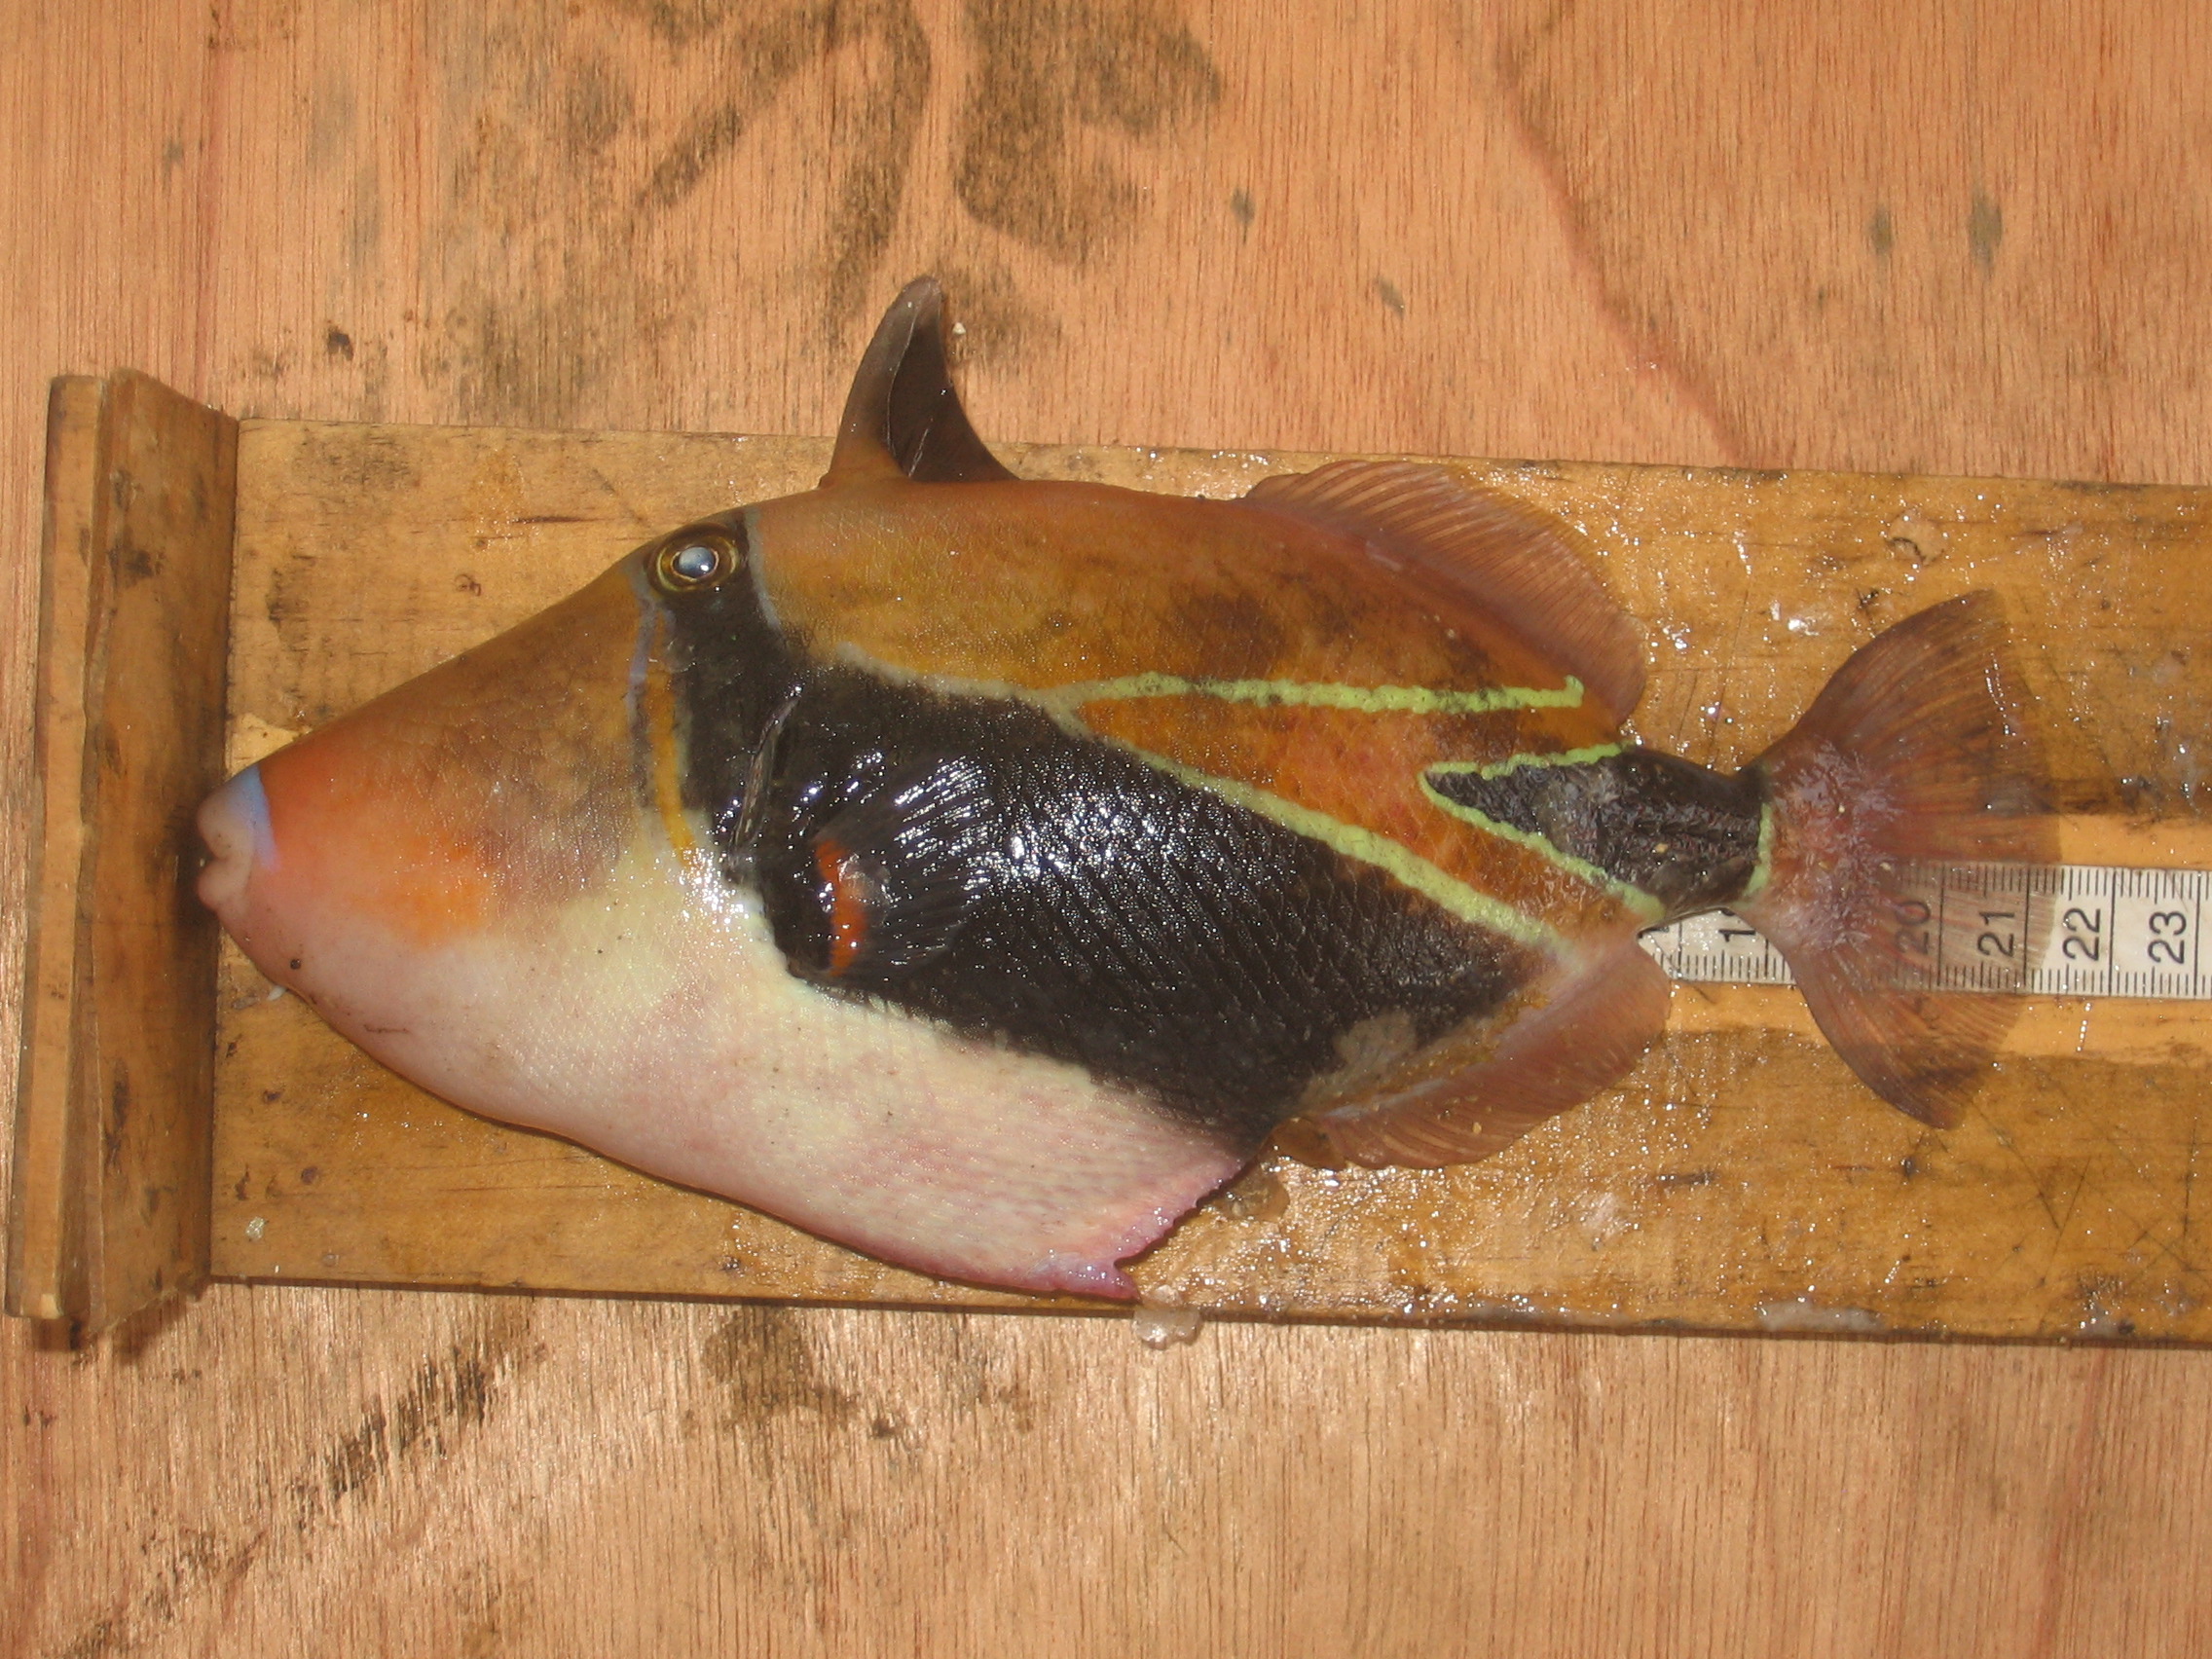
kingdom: Animalia
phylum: Chordata
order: Tetraodontiformes
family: Balistidae
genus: Rhinecanthus
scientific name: Rhinecanthus rectangulus
